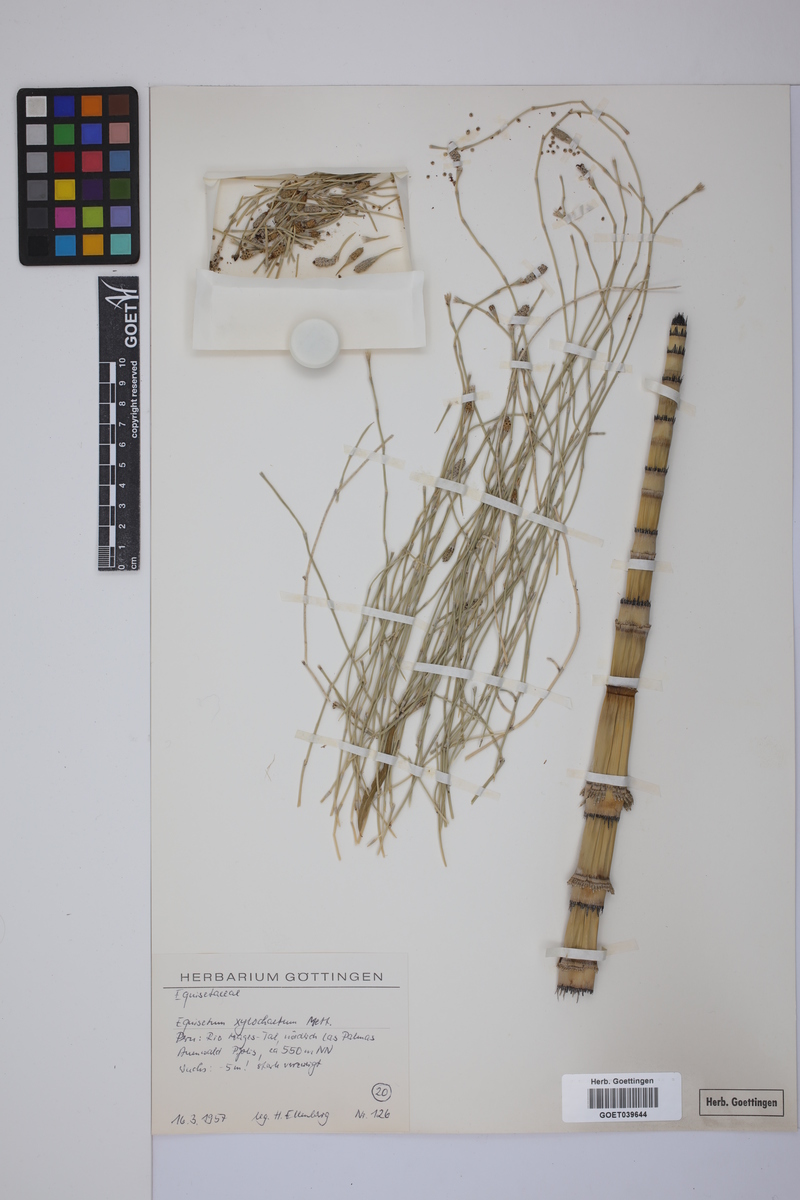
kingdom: Plantae
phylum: Tracheophyta
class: Polypodiopsida
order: Equisetales
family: Equisetaceae
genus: Equisetum
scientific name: Equisetum giganteum
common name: Giant horsetail
